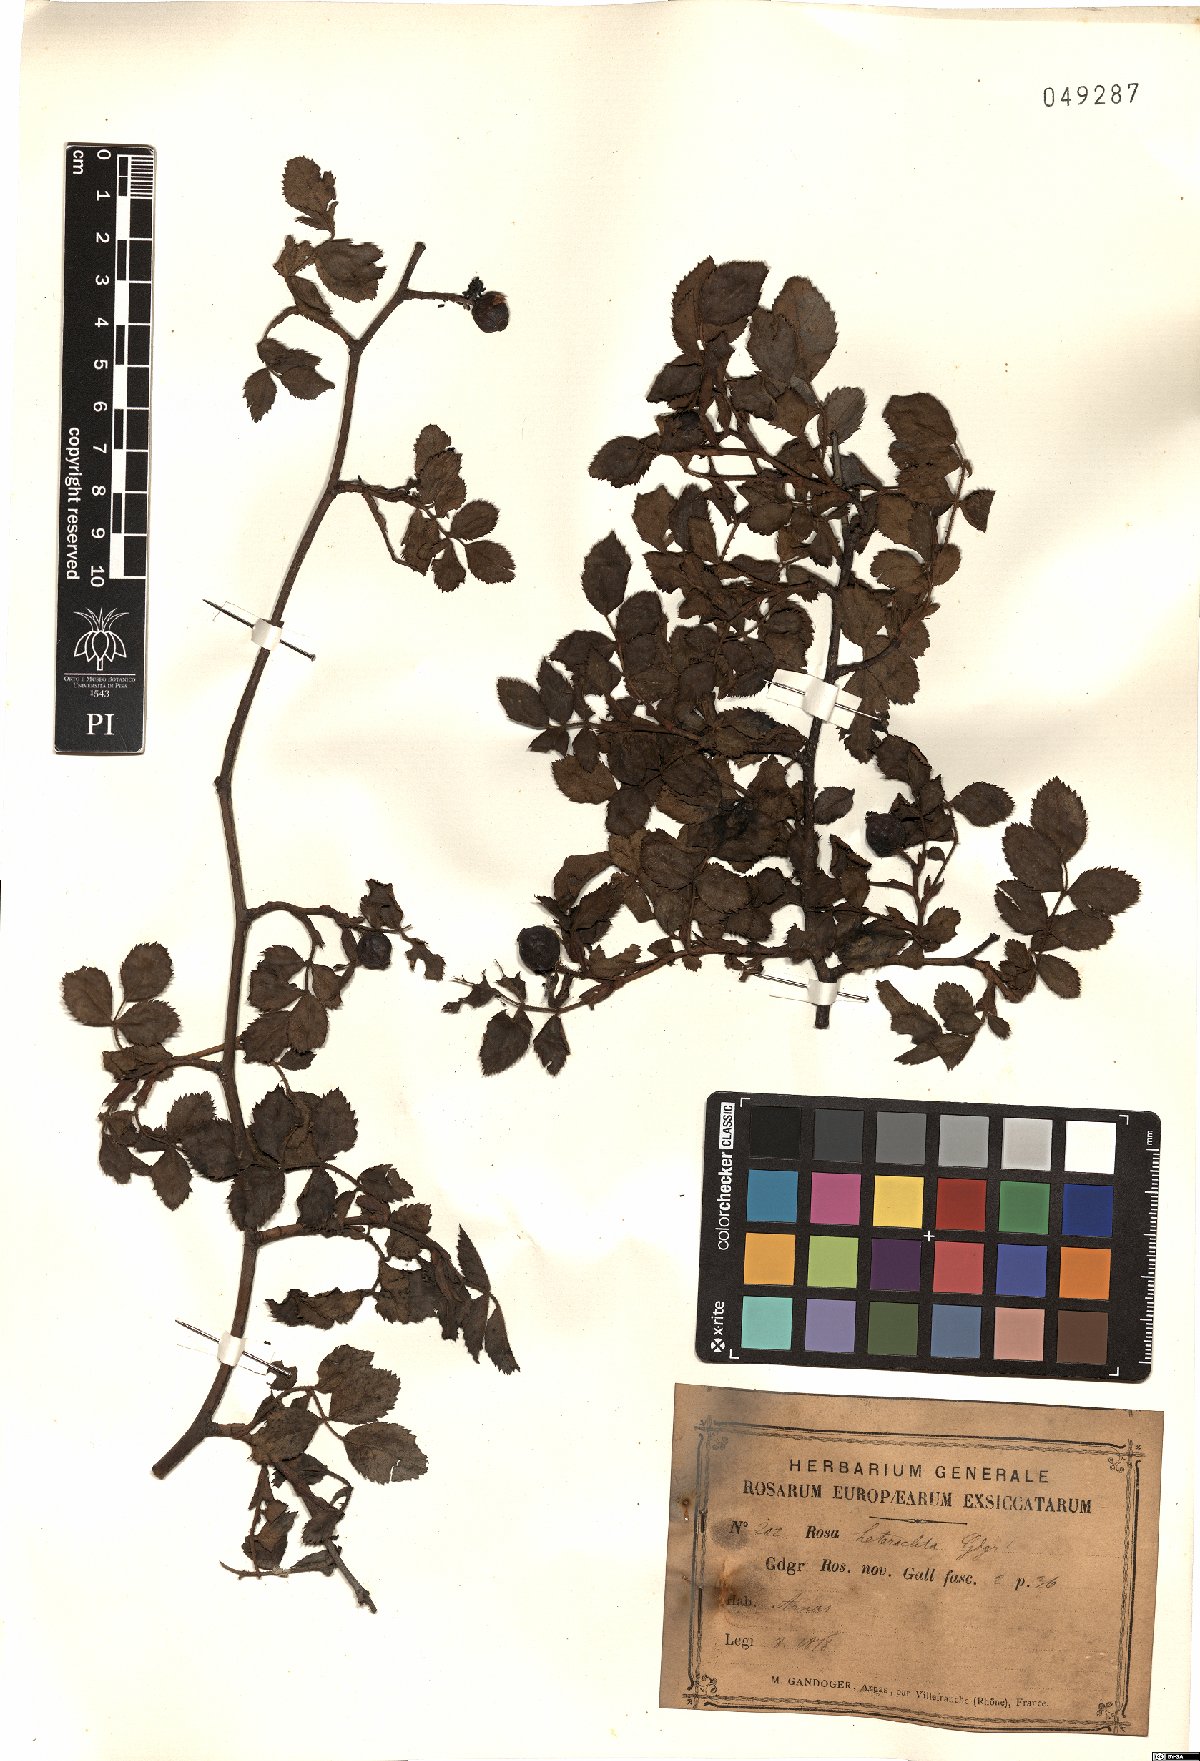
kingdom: Plantae
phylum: Tracheophyta
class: Magnoliopsida
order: Rosales
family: Rosaceae
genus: Rosa
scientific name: Rosa micrantha
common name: Small-flowered sweet-briar
